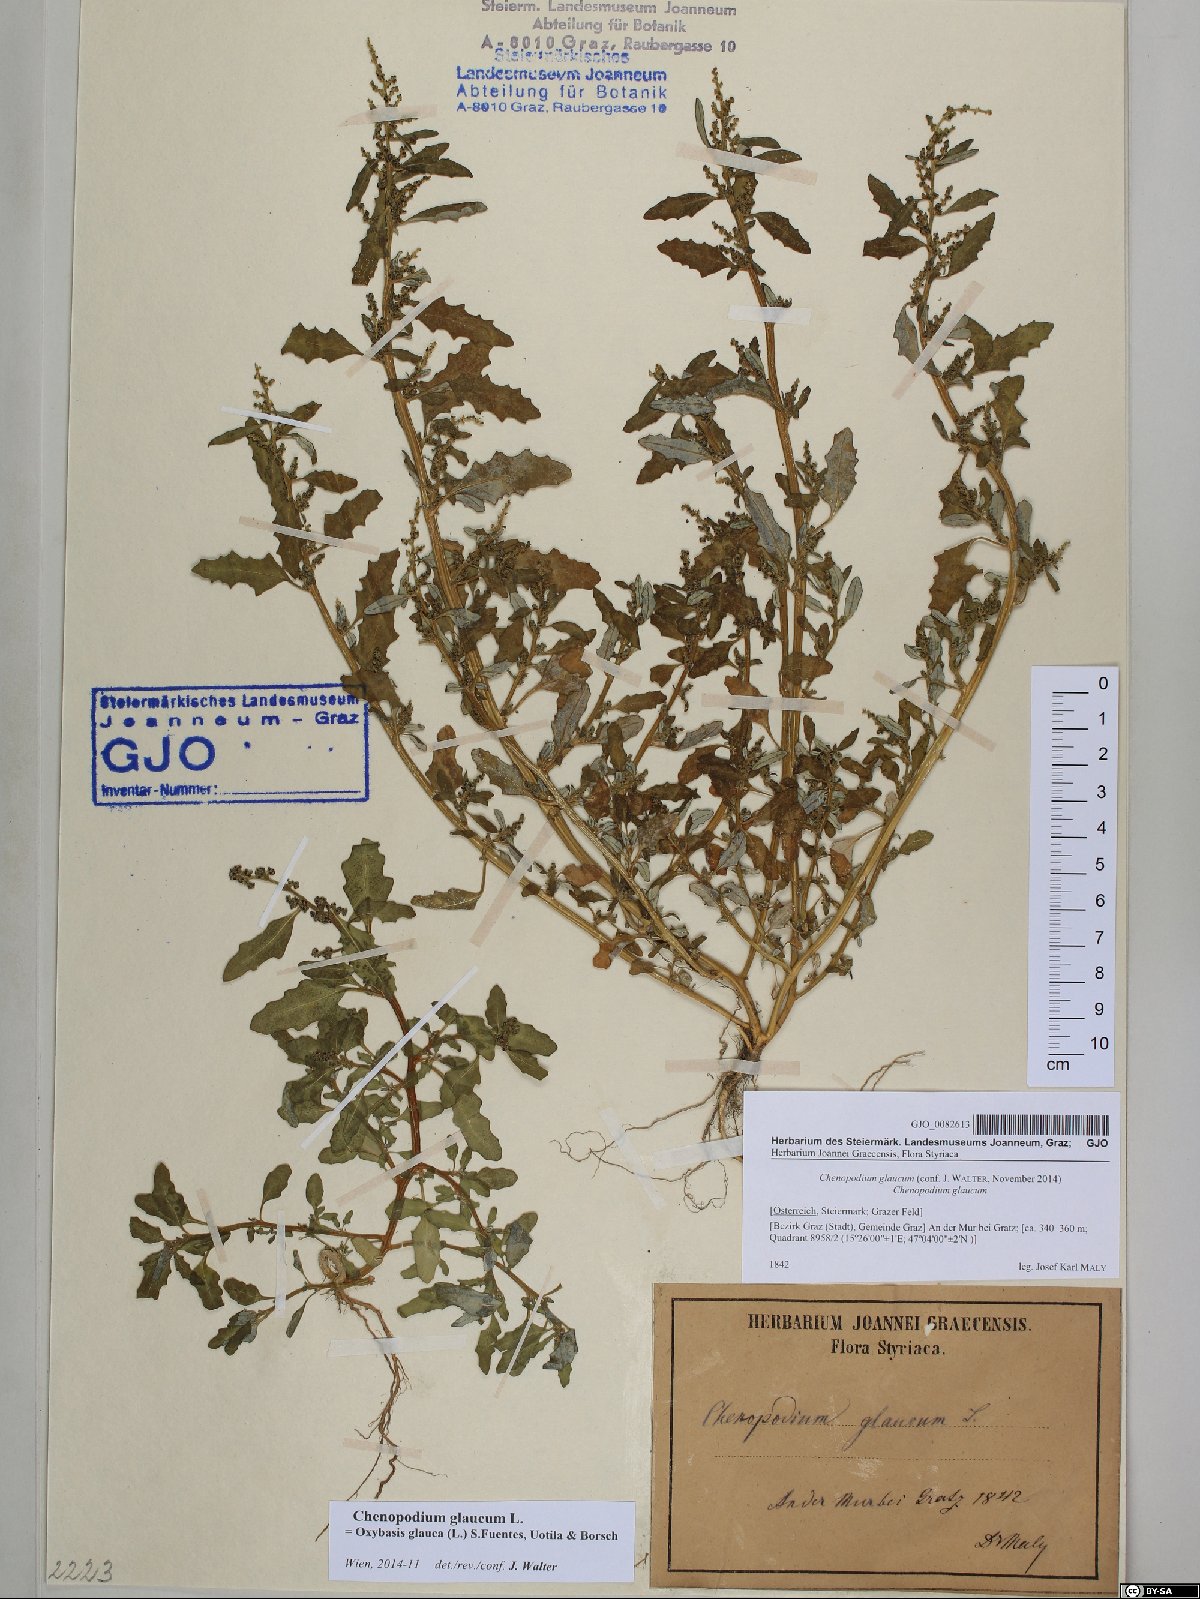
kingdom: Plantae
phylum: Tracheophyta
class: Magnoliopsida
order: Caryophyllales
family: Amaranthaceae
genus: Oxybasis
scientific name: Oxybasis glauca
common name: Glaucous goosefoot
